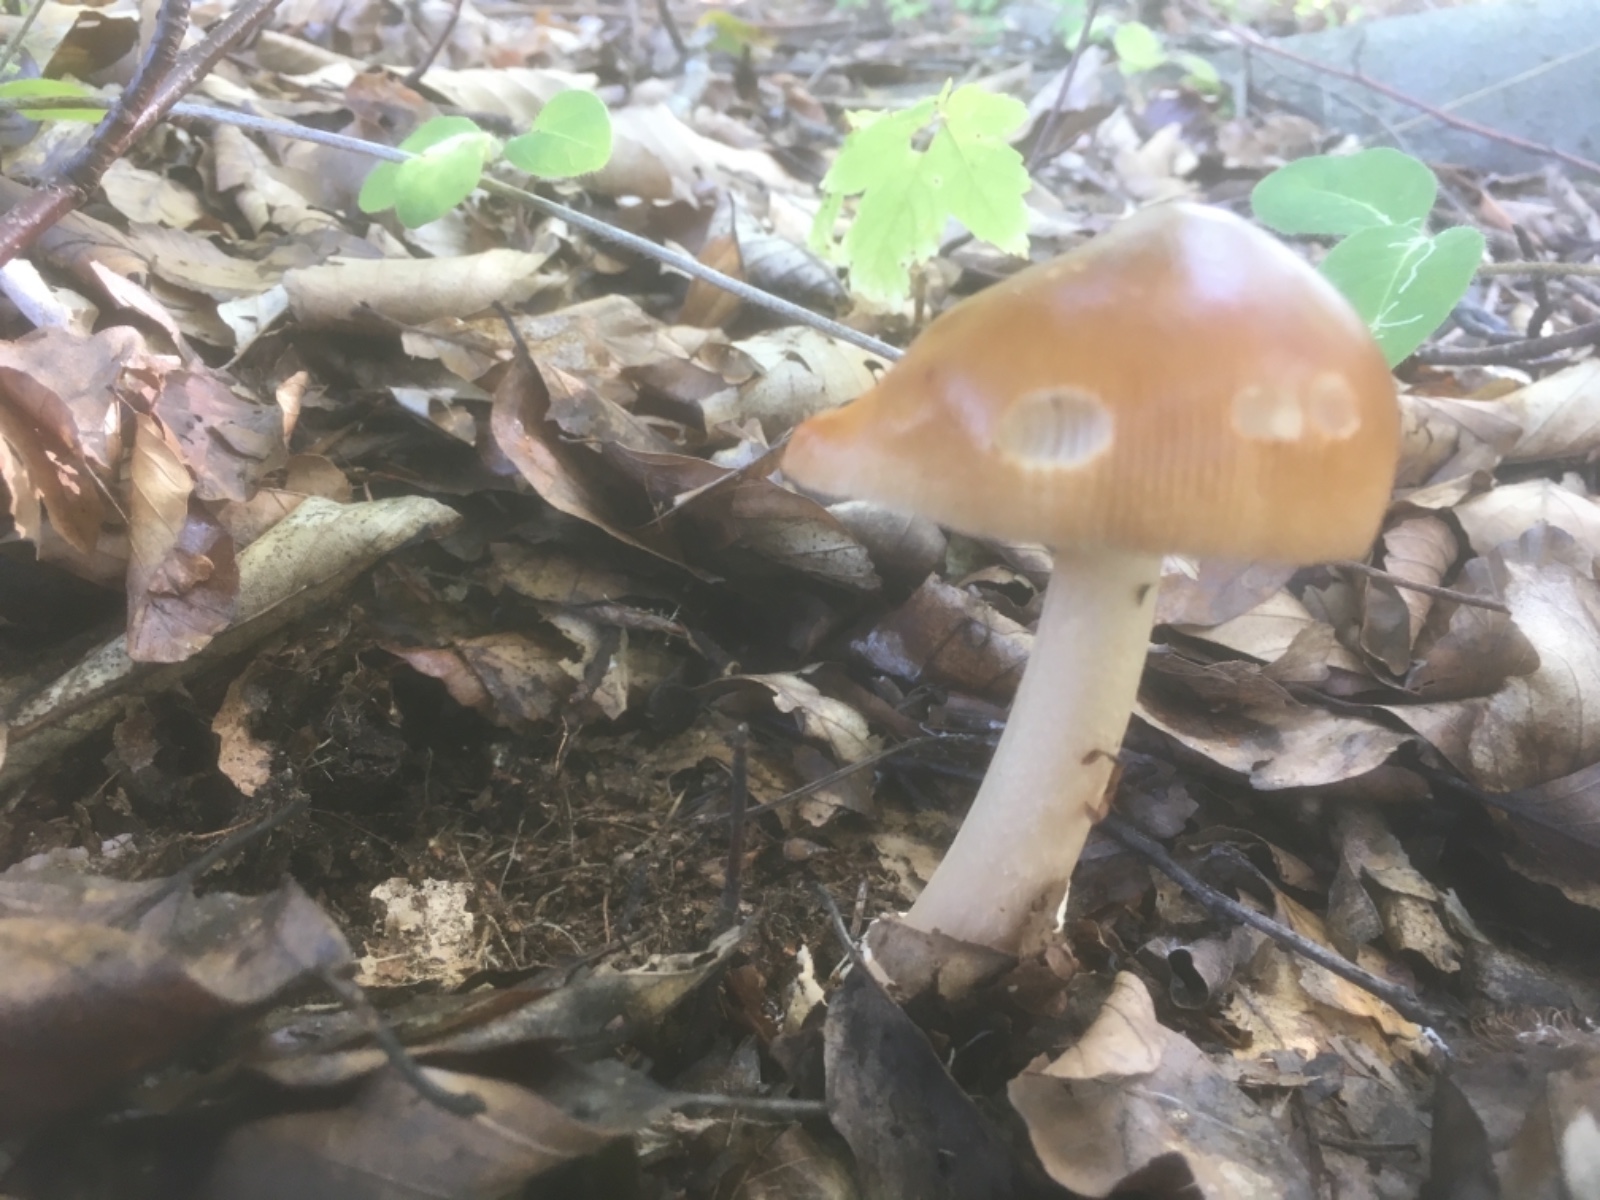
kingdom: Fungi
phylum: Basidiomycota
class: Agaricomycetes
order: Agaricales
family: Amanitaceae
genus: Amanita
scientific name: Amanita fulva
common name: brun kam-fluesvamp
